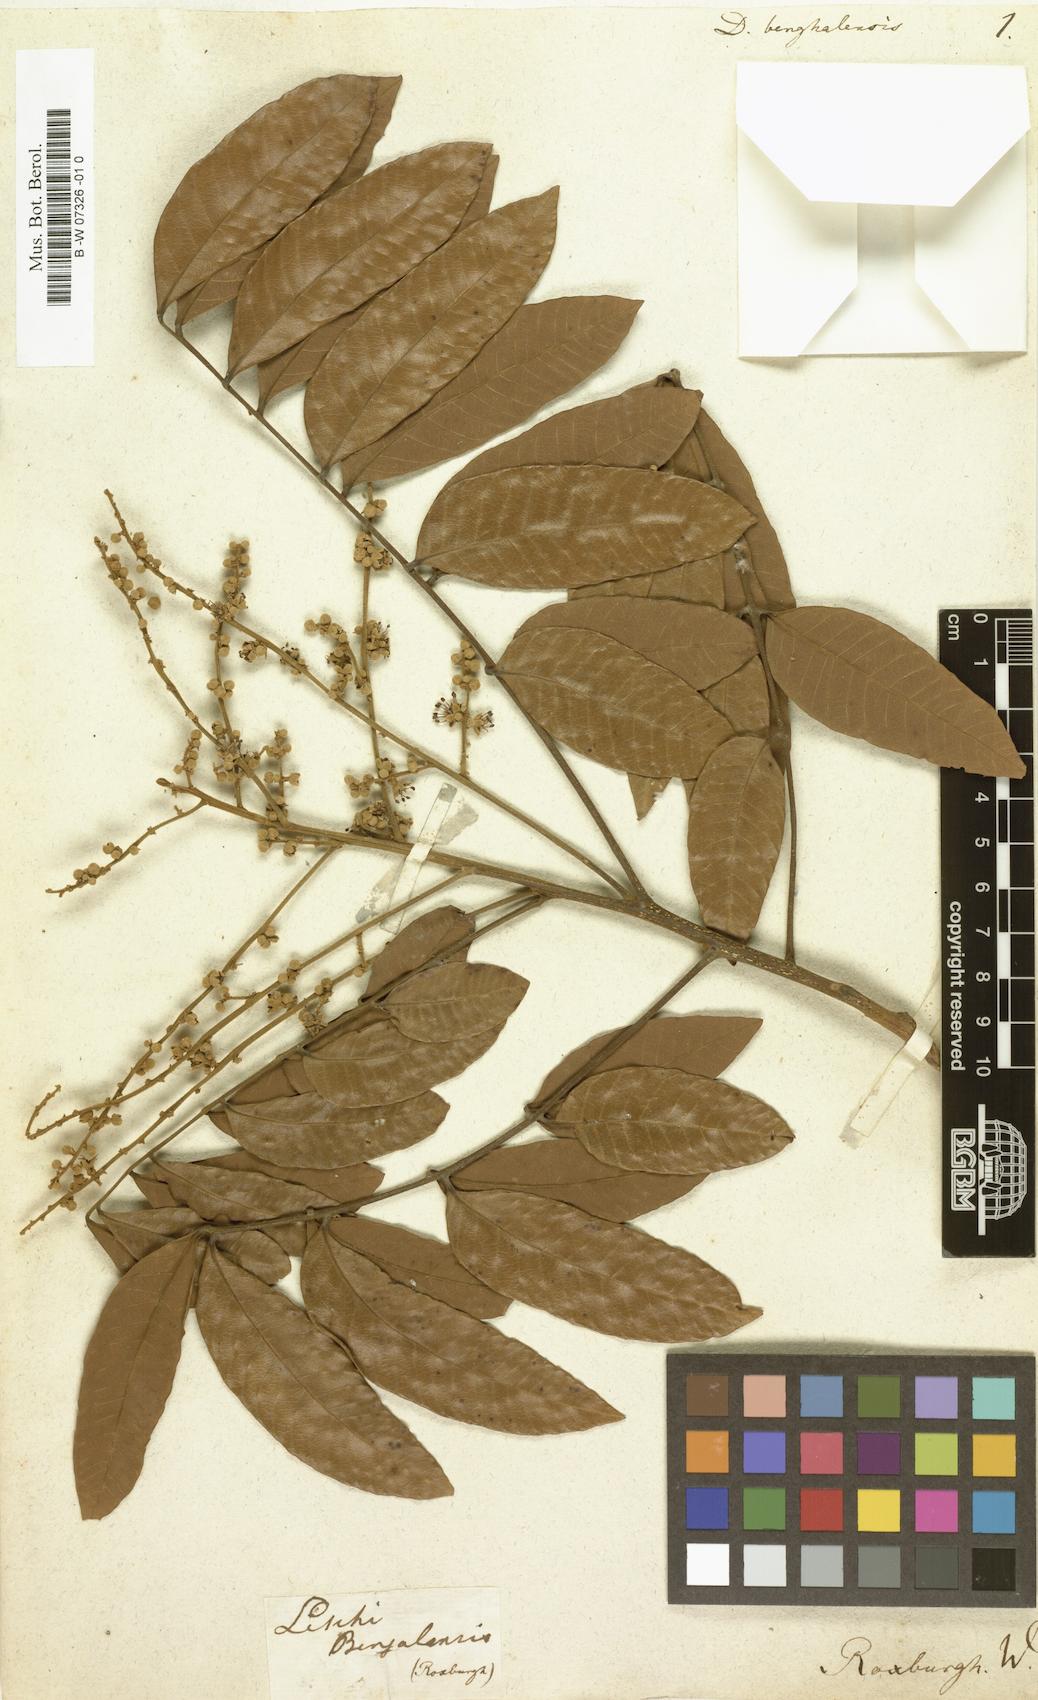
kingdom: Plantae
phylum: Tracheophyta
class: Magnoliopsida
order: Sapindales
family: Sapindaceae
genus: Dimocarpus
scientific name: Dimocarpus
